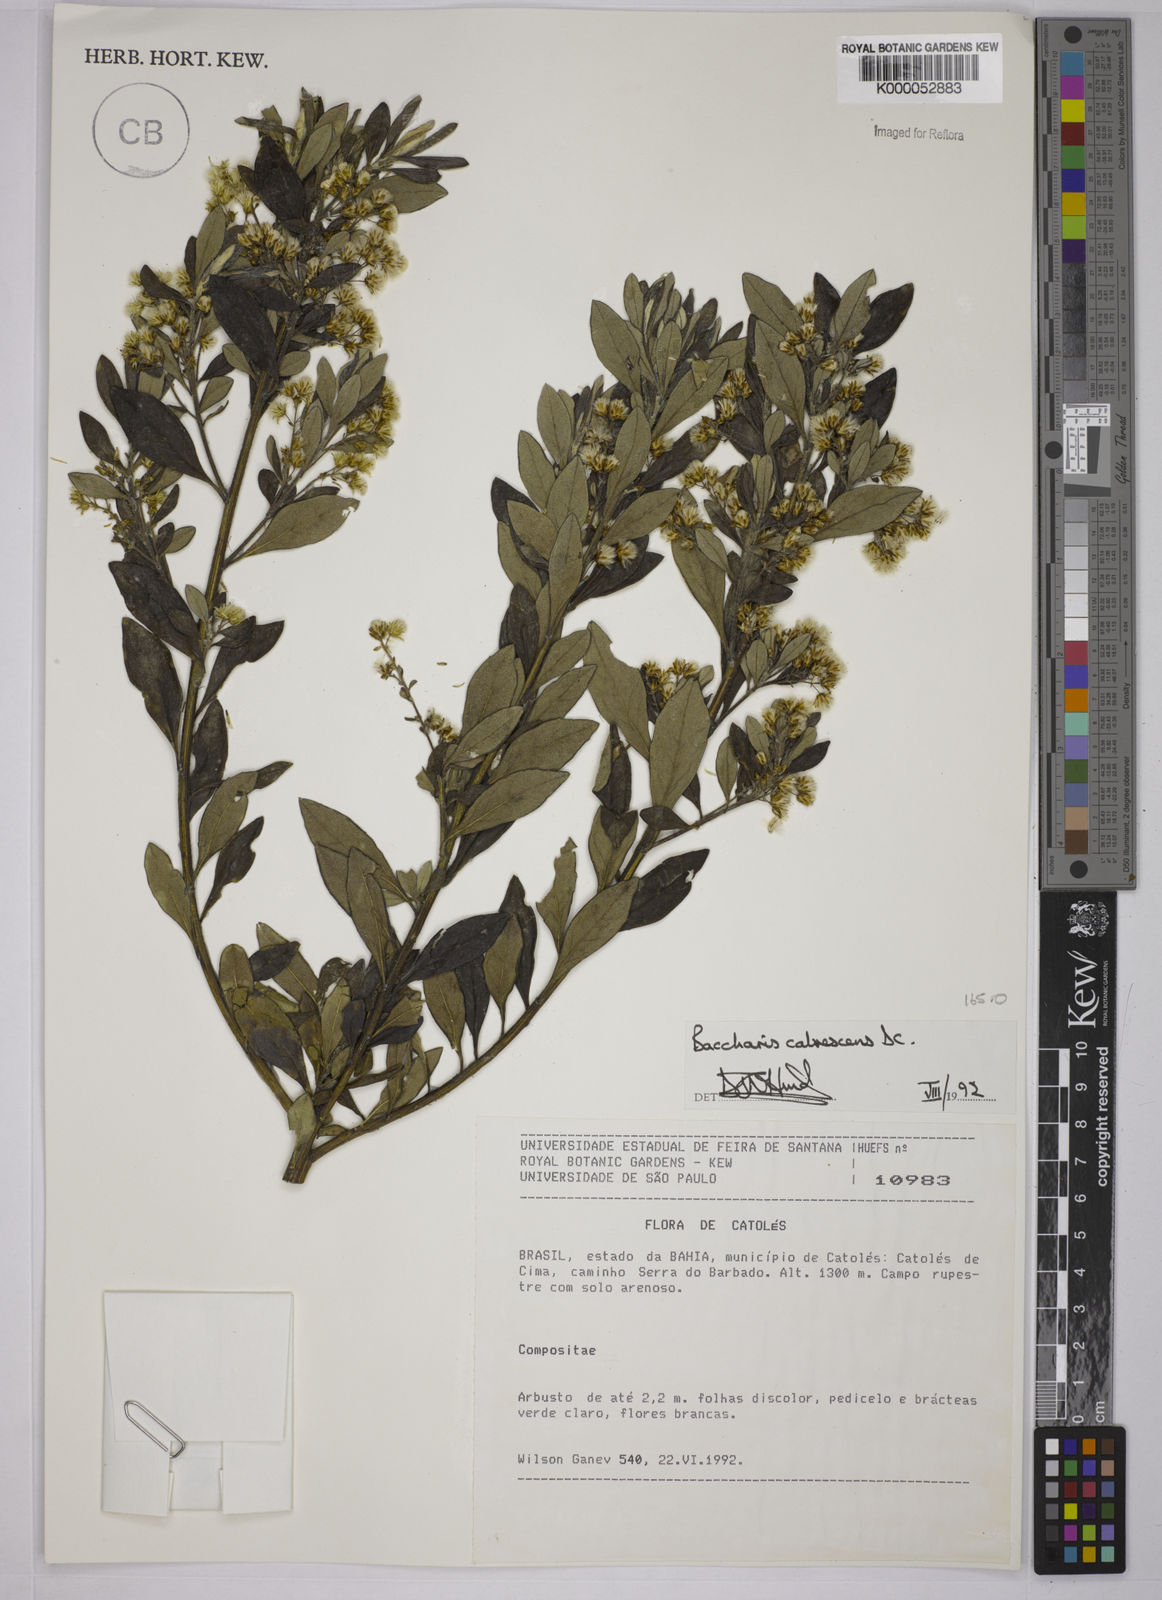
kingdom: Plantae
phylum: Tracheophyta
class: Magnoliopsida
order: Asterales
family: Asteraceae
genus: Baccharis
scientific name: Baccharis calvescens
